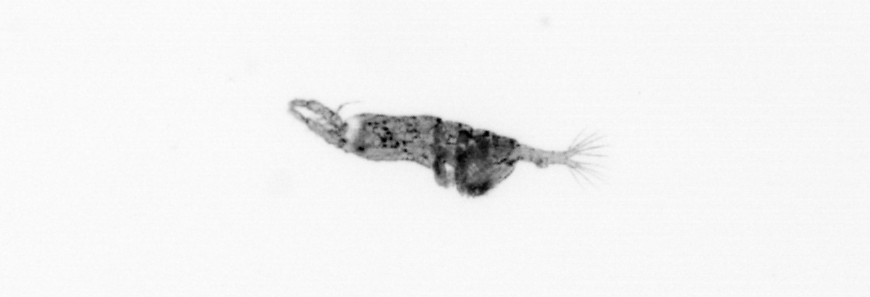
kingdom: Animalia
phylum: Arthropoda
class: Copepoda
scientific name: Copepoda
